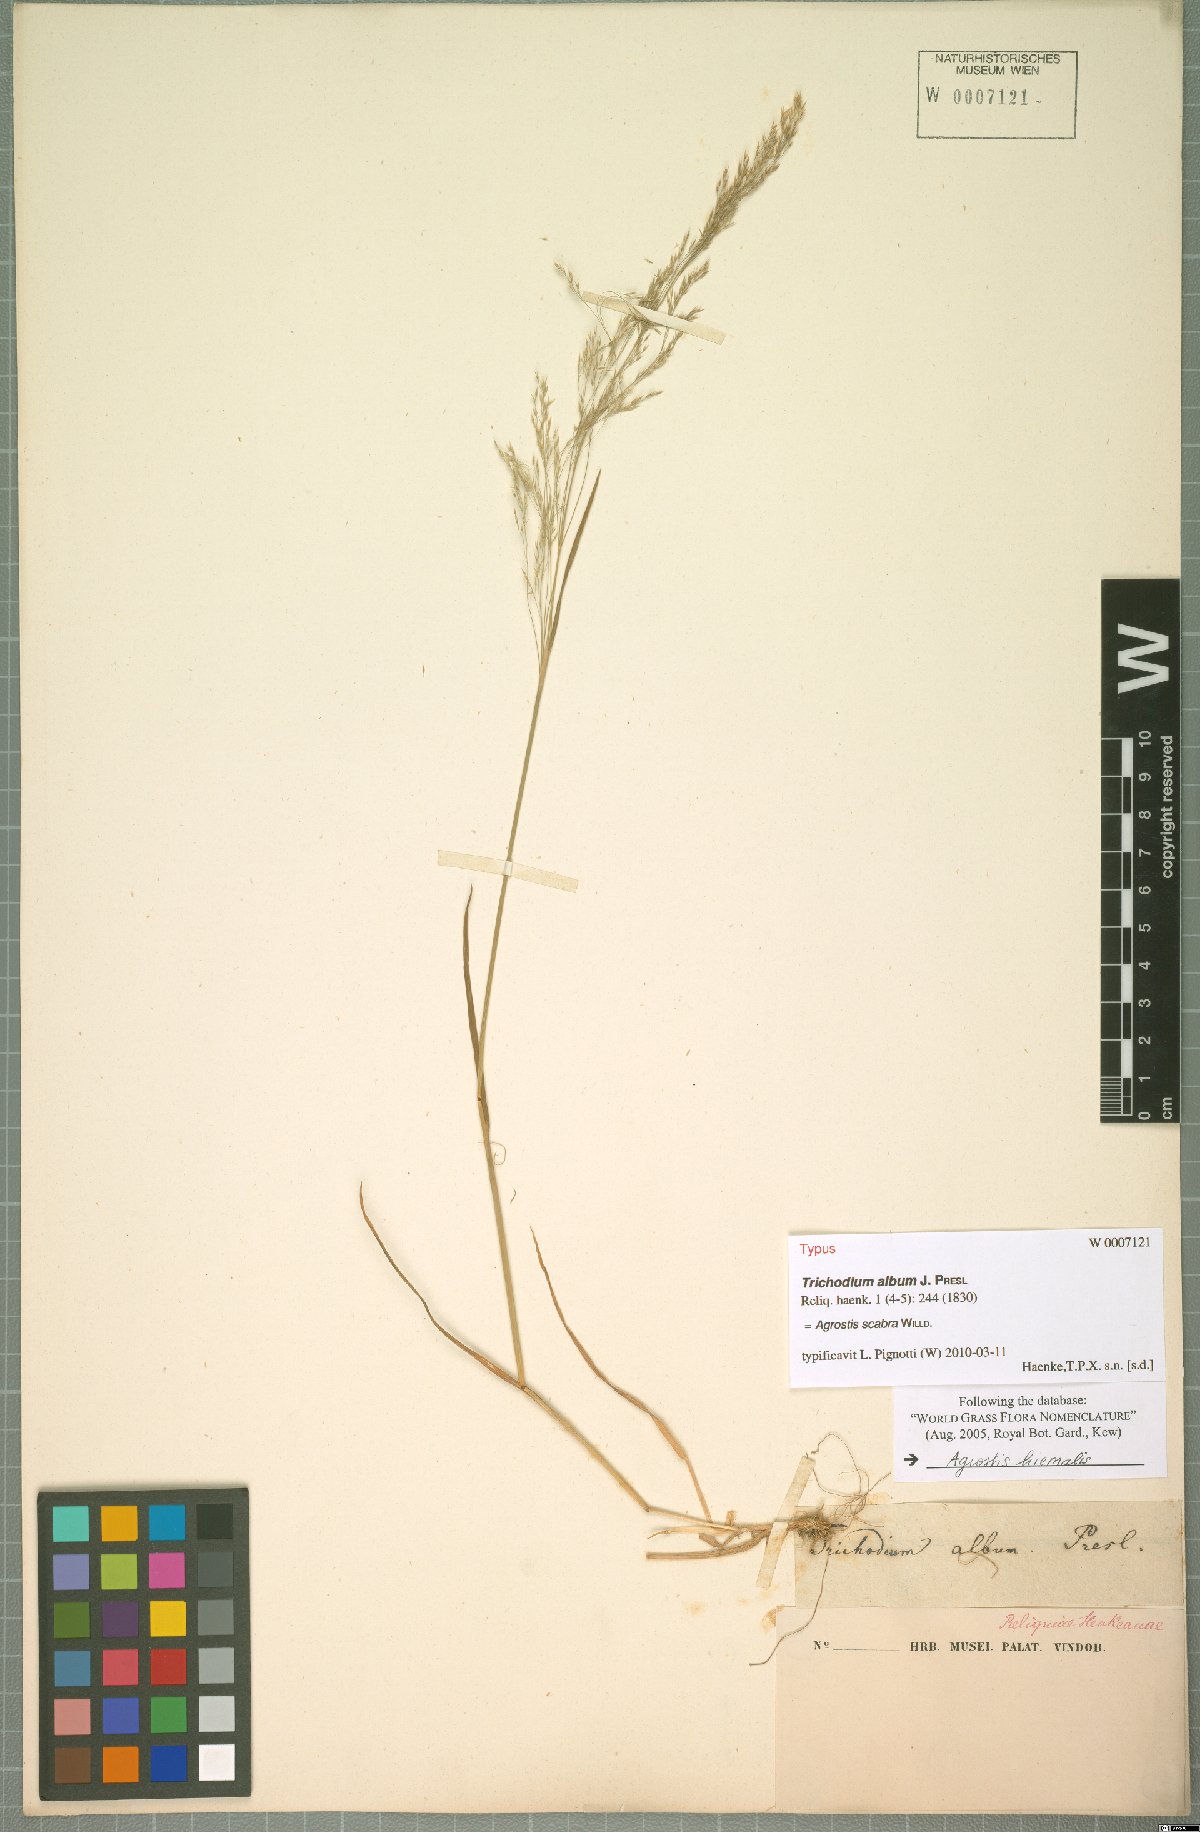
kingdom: Plantae
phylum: Tracheophyta
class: Liliopsida
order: Poales
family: Poaceae
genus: Agrostis
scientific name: Agrostis scabra
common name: Rough bent
